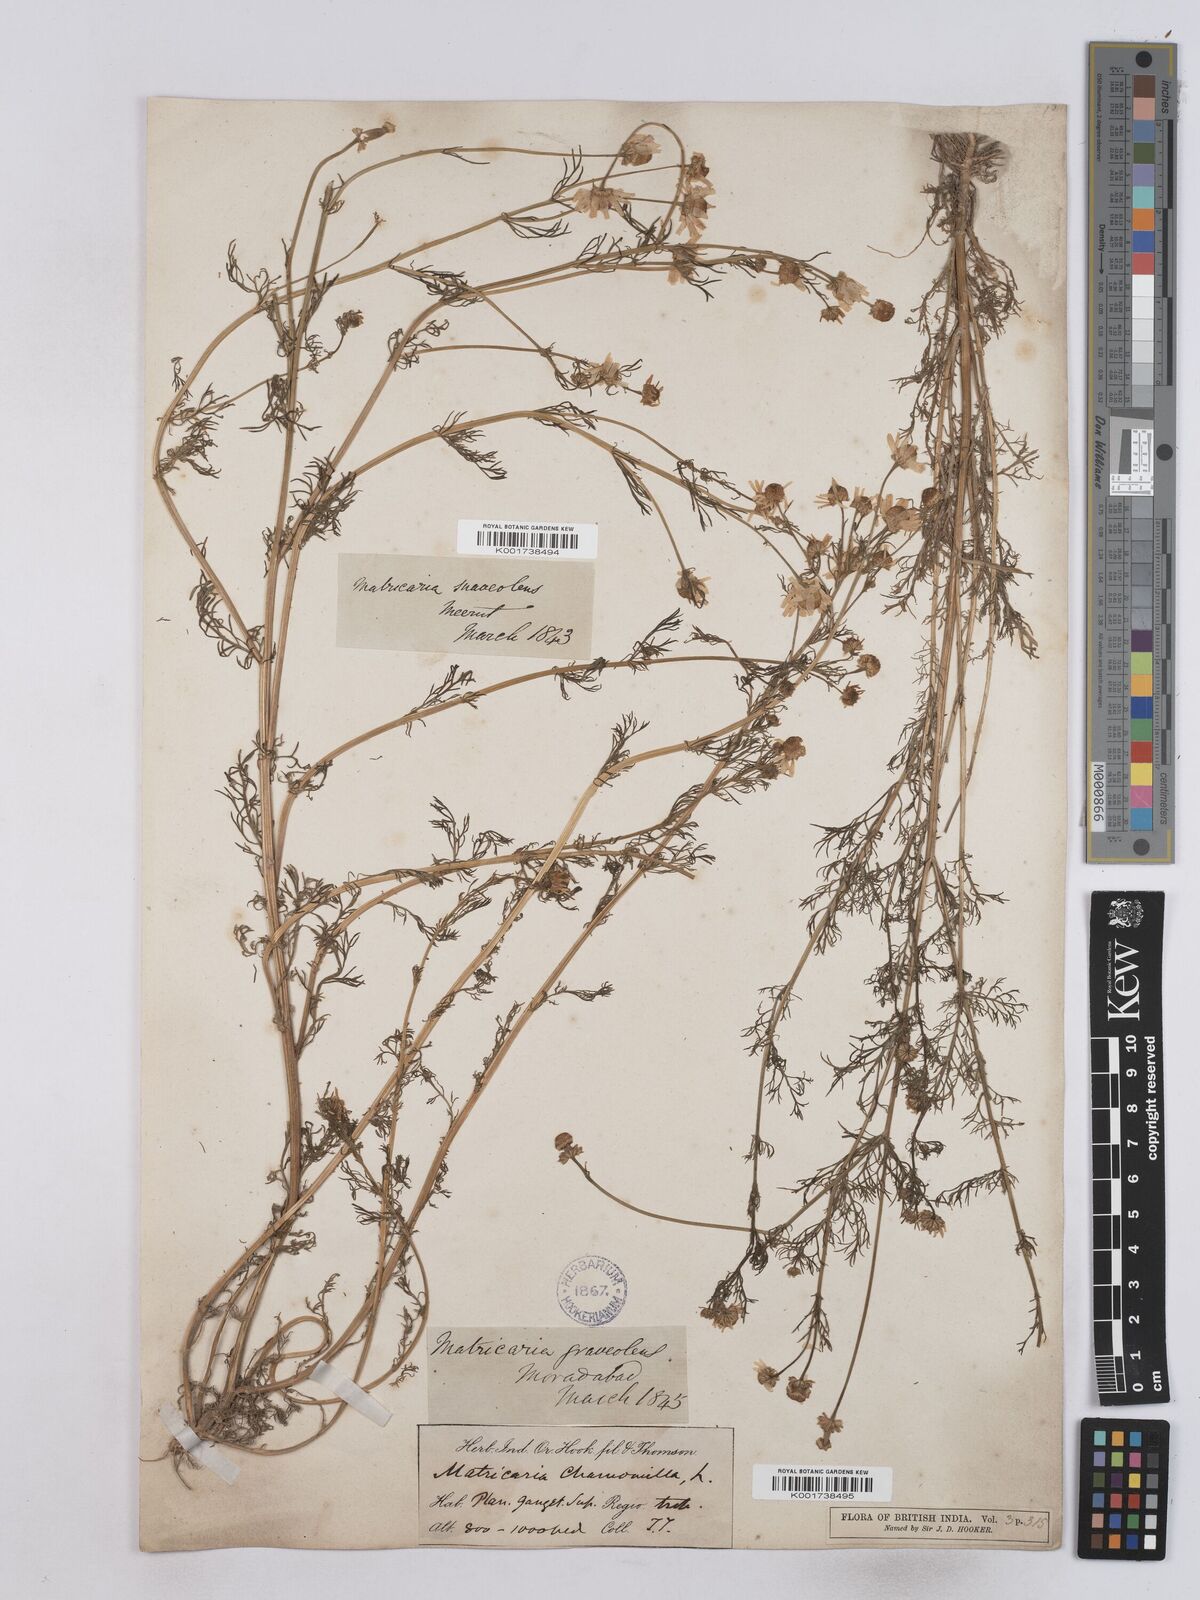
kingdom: Plantae
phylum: Tracheophyta
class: Magnoliopsida
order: Asterales
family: Asteraceae
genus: Matricaria
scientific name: Matricaria chamomilla
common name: Scented mayweed
